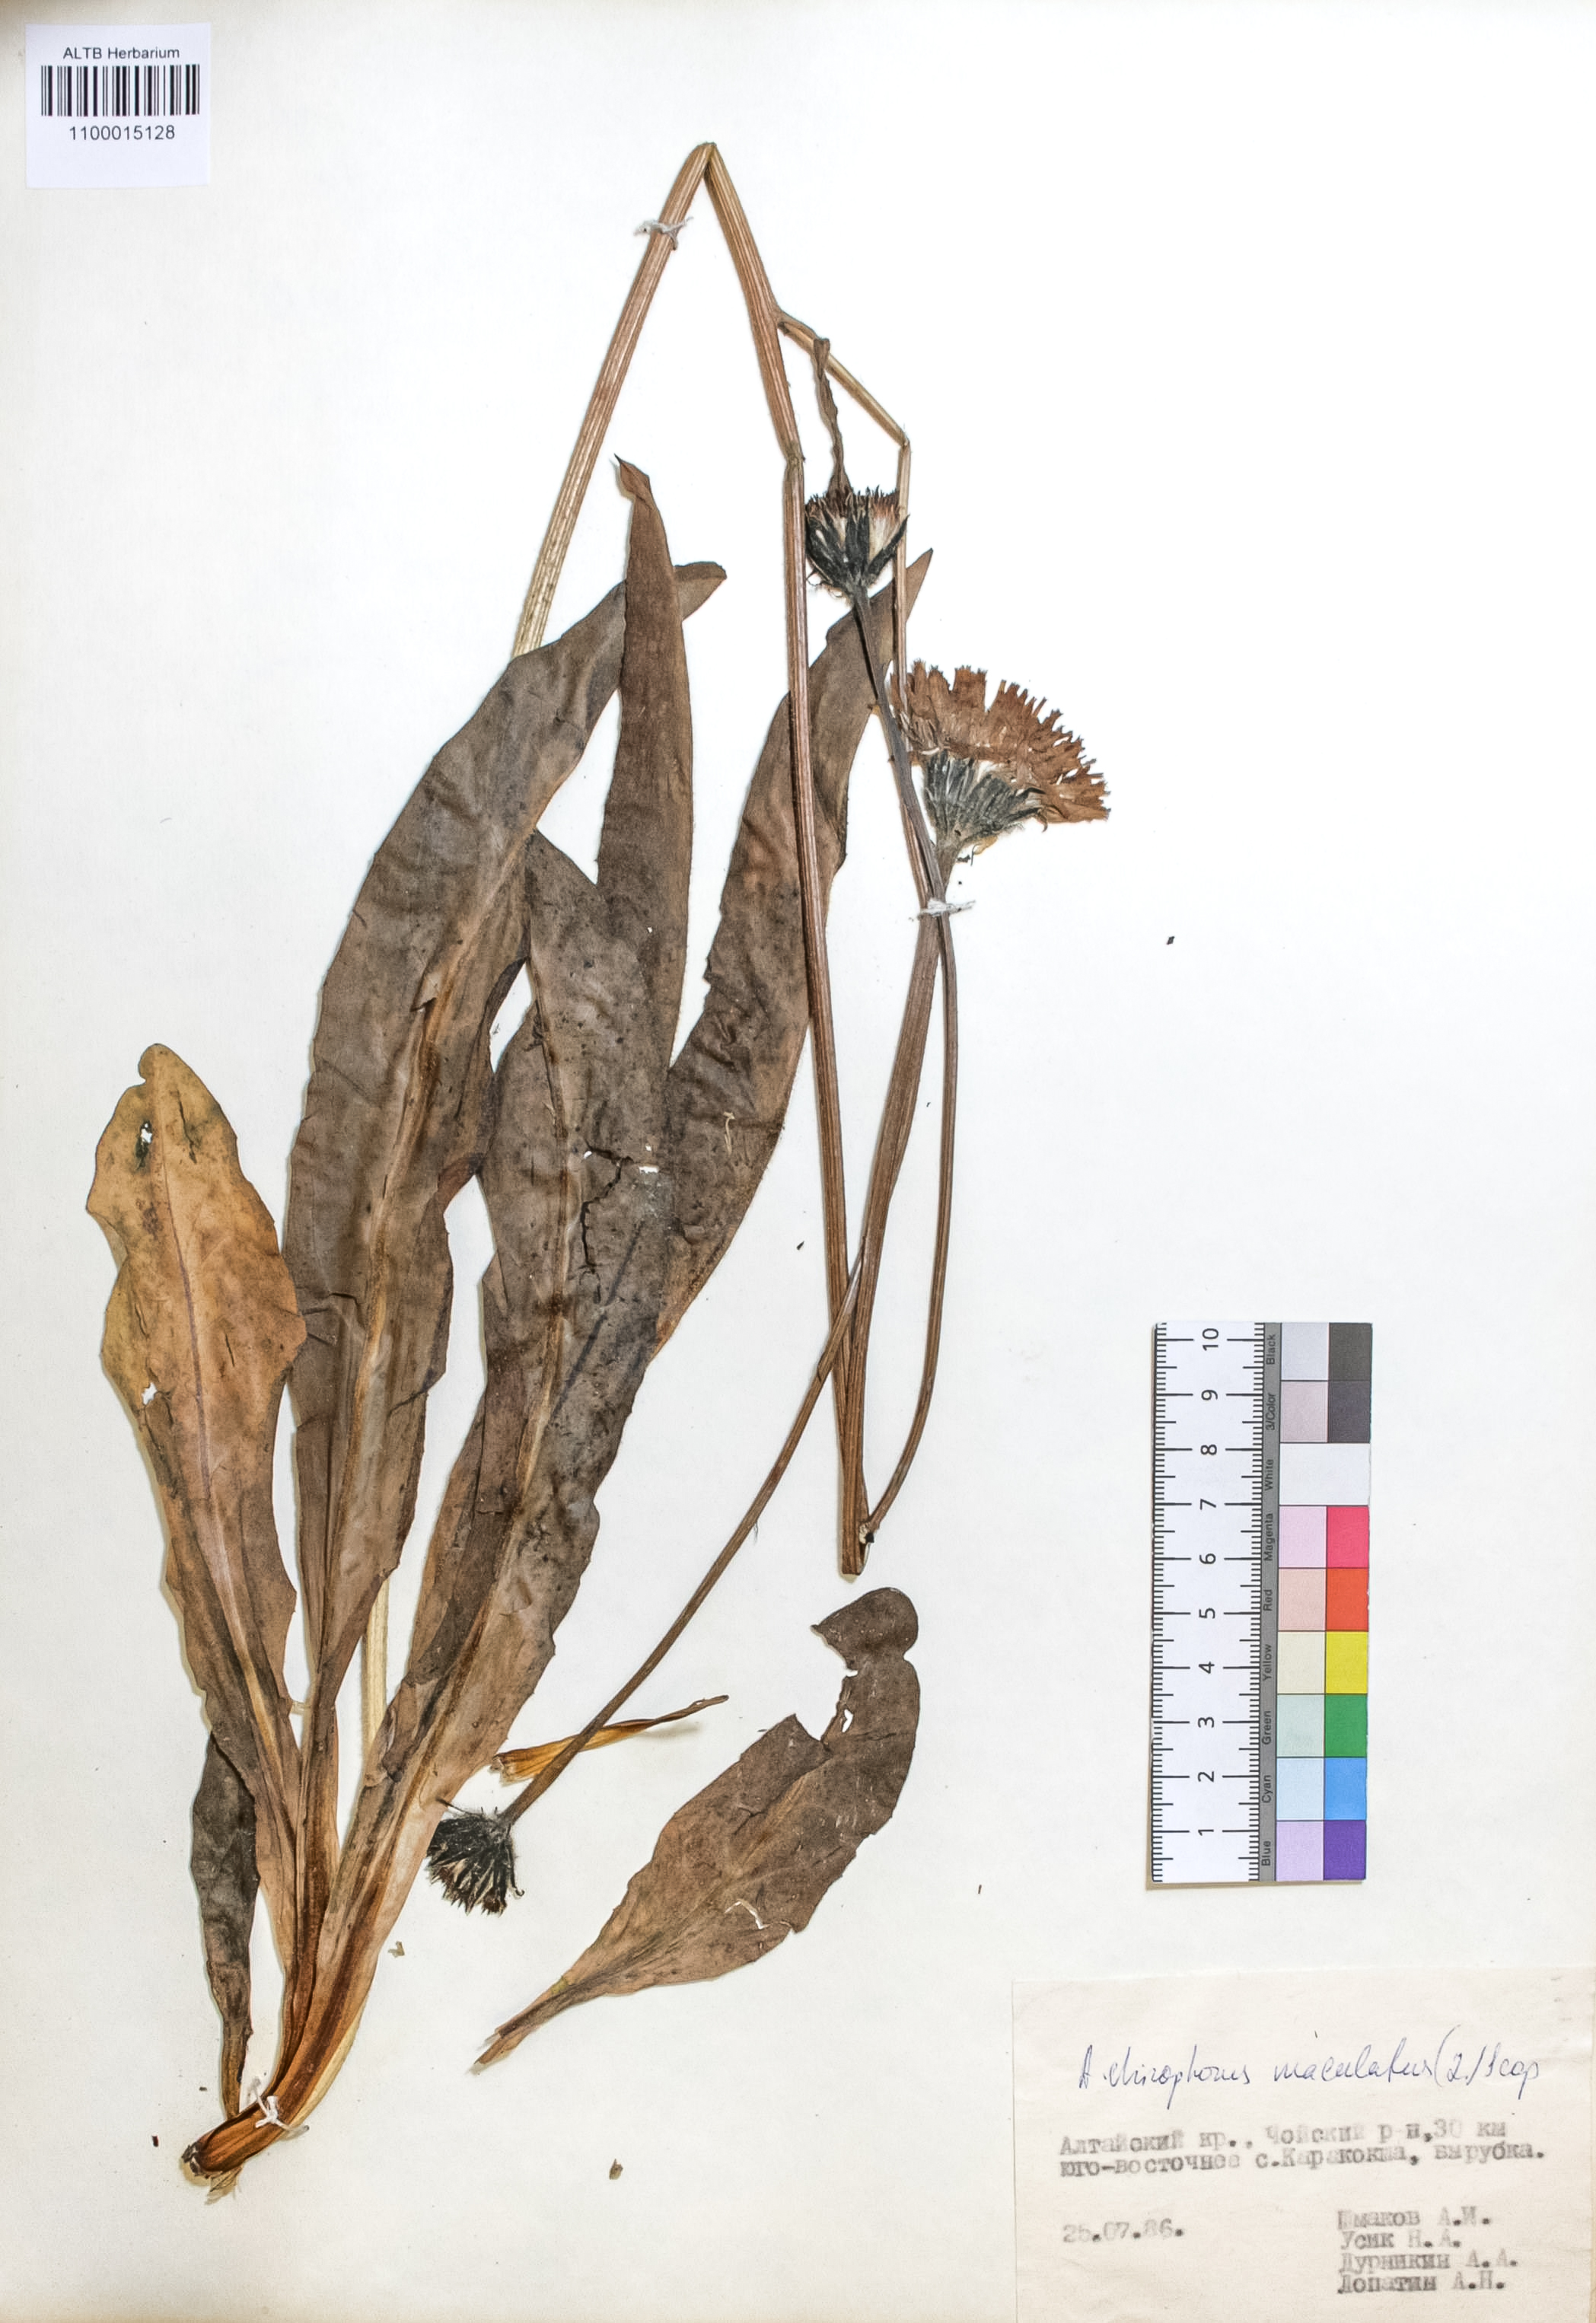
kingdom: Plantae
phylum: Tracheophyta
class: Magnoliopsida
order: Asterales
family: Asteraceae
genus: Trommsdorffia
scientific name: Trommsdorffia maculata
